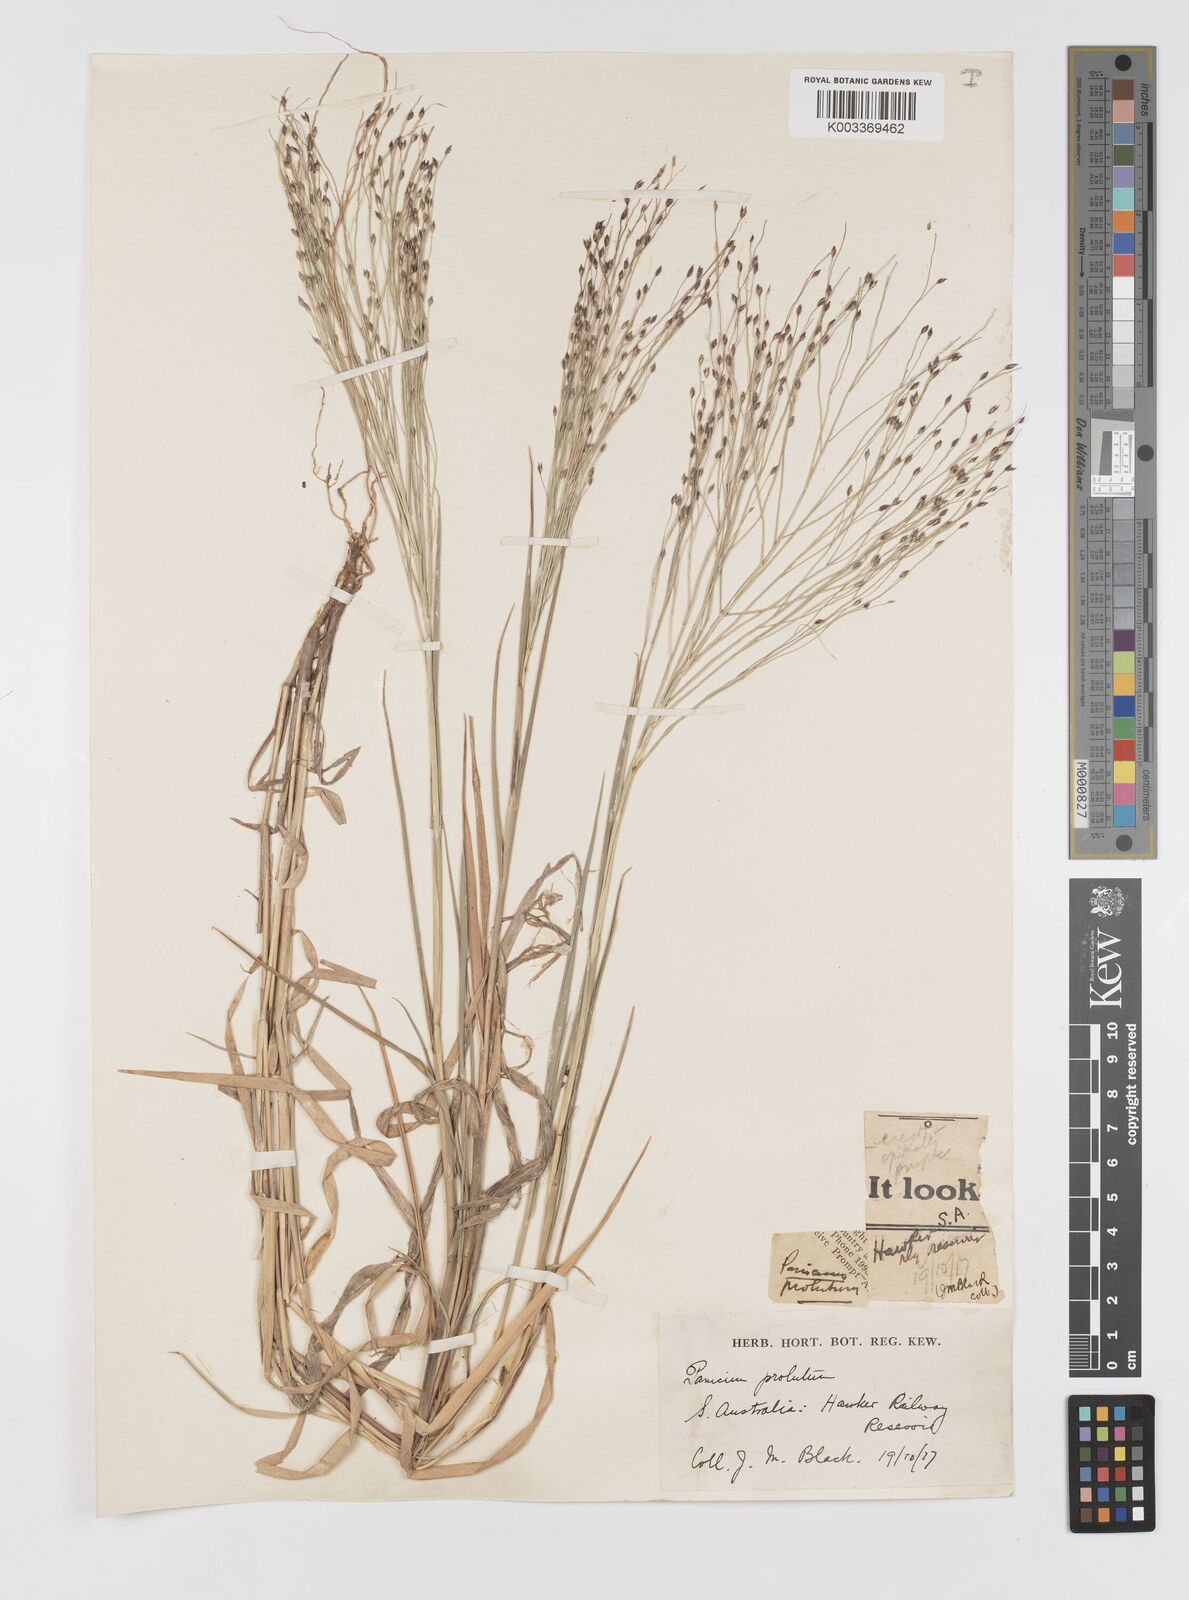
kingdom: Plantae
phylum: Tracheophyta
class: Liliopsida
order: Poales
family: Poaceae
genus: Walwhalleya
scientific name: Walwhalleya proluta
